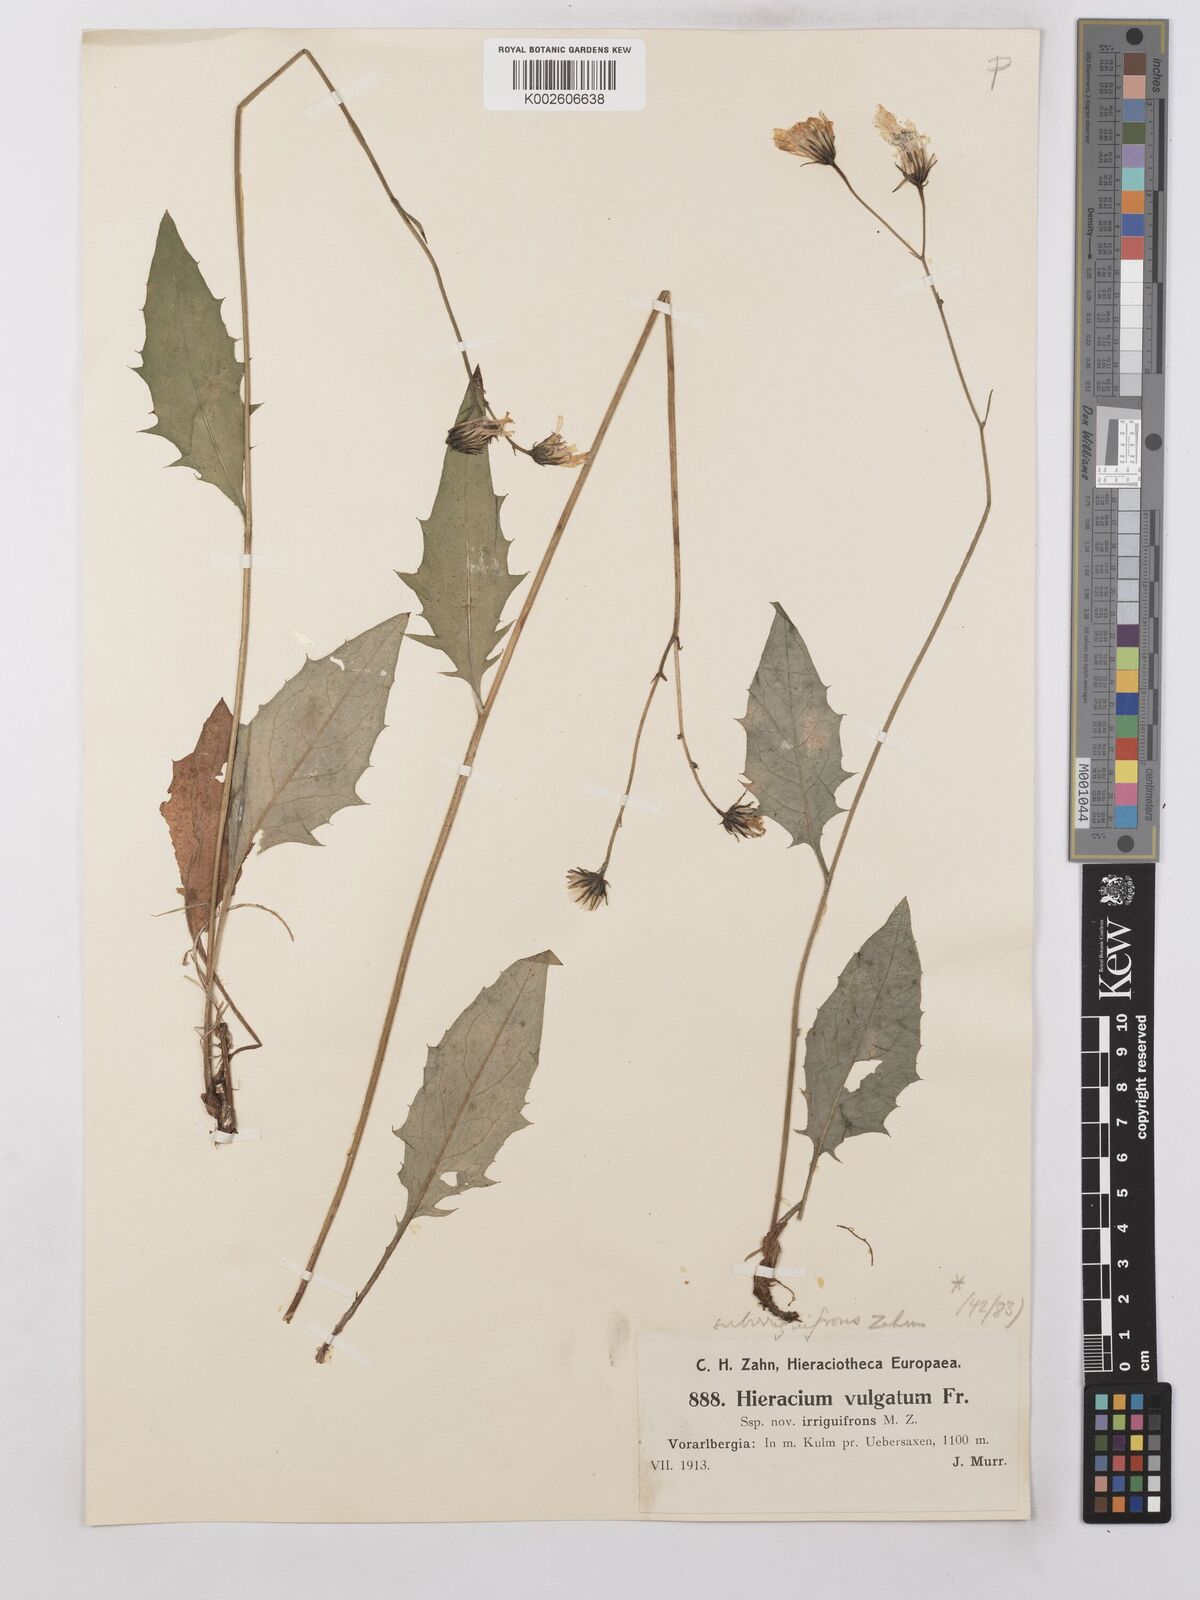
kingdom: Plantae
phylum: Tracheophyta
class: Magnoliopsida
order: Asterales
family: Asteraceae
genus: Hieracium
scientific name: Hieracium lachenalii
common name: Common hawkweed
